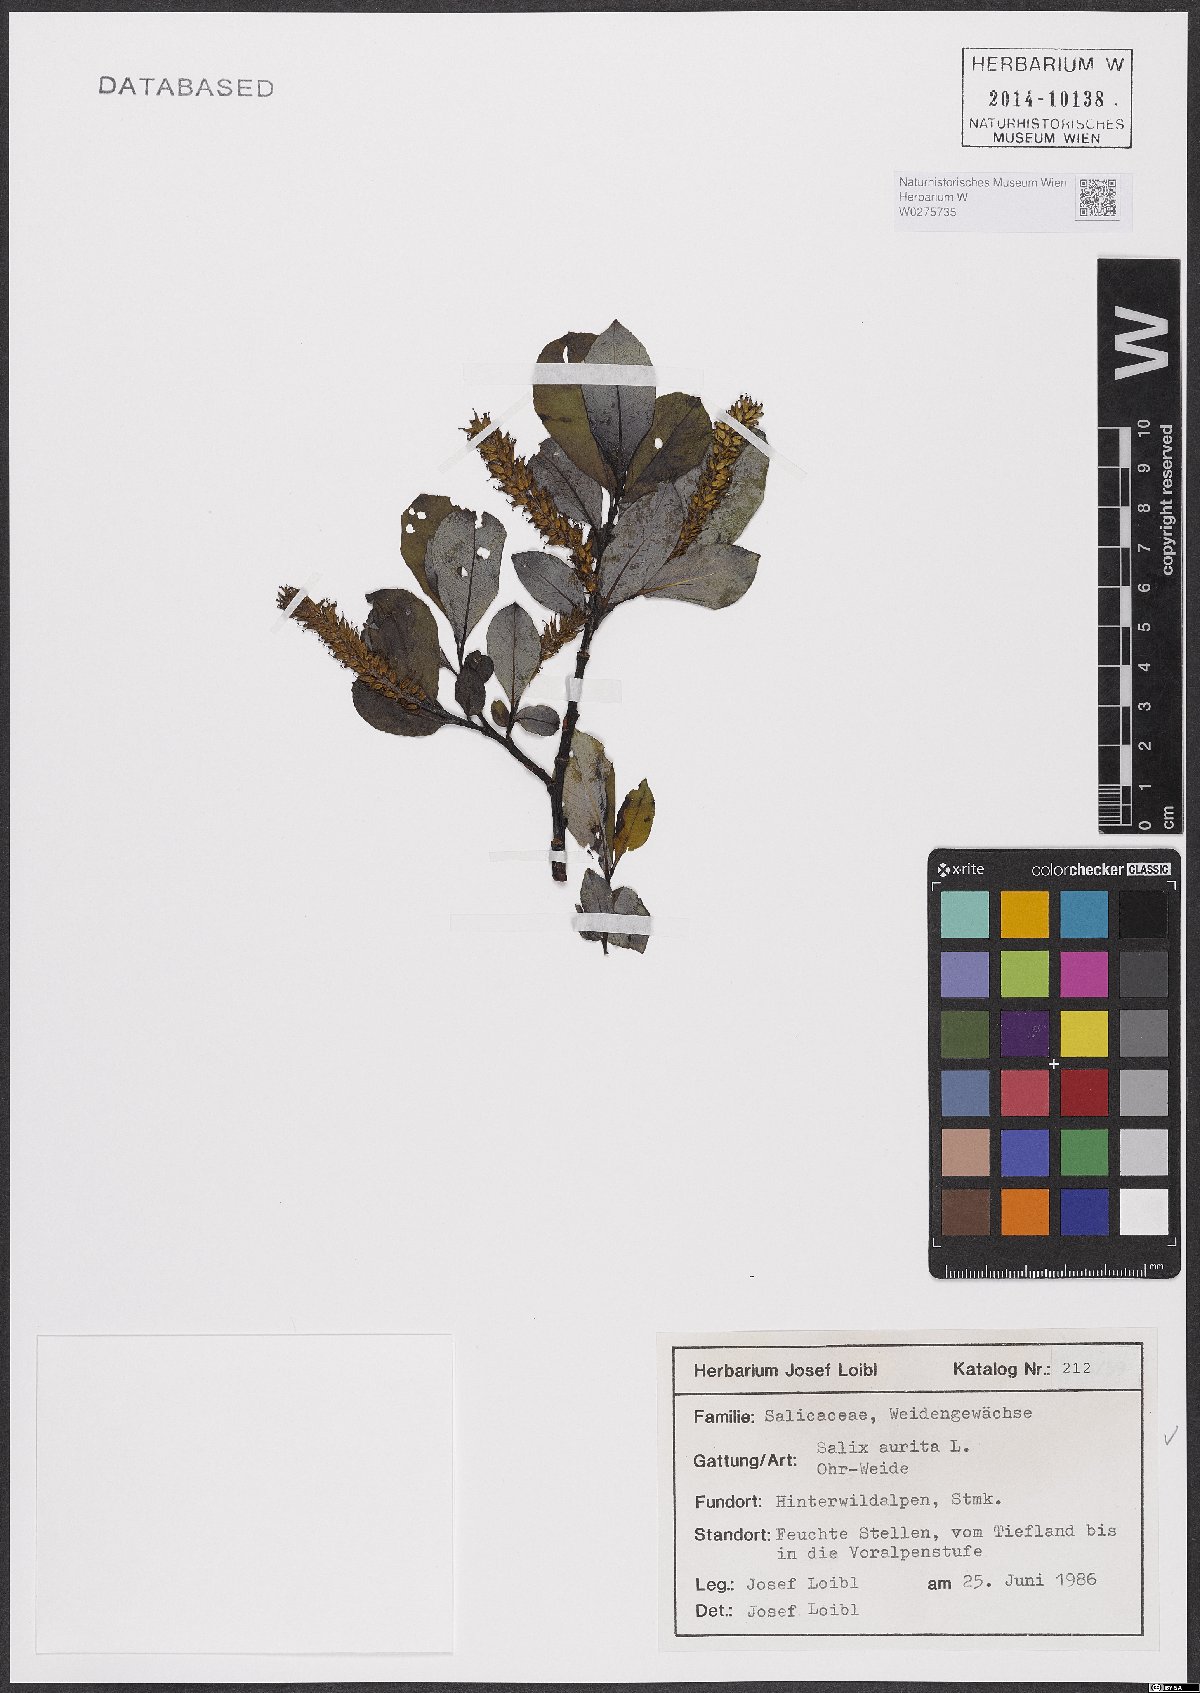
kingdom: Plantae
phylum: Tracheophyta
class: Magnoliopsida
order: Malpighiales
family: Salicaceae
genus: Salix
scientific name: Salix aurita
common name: Eared willow
